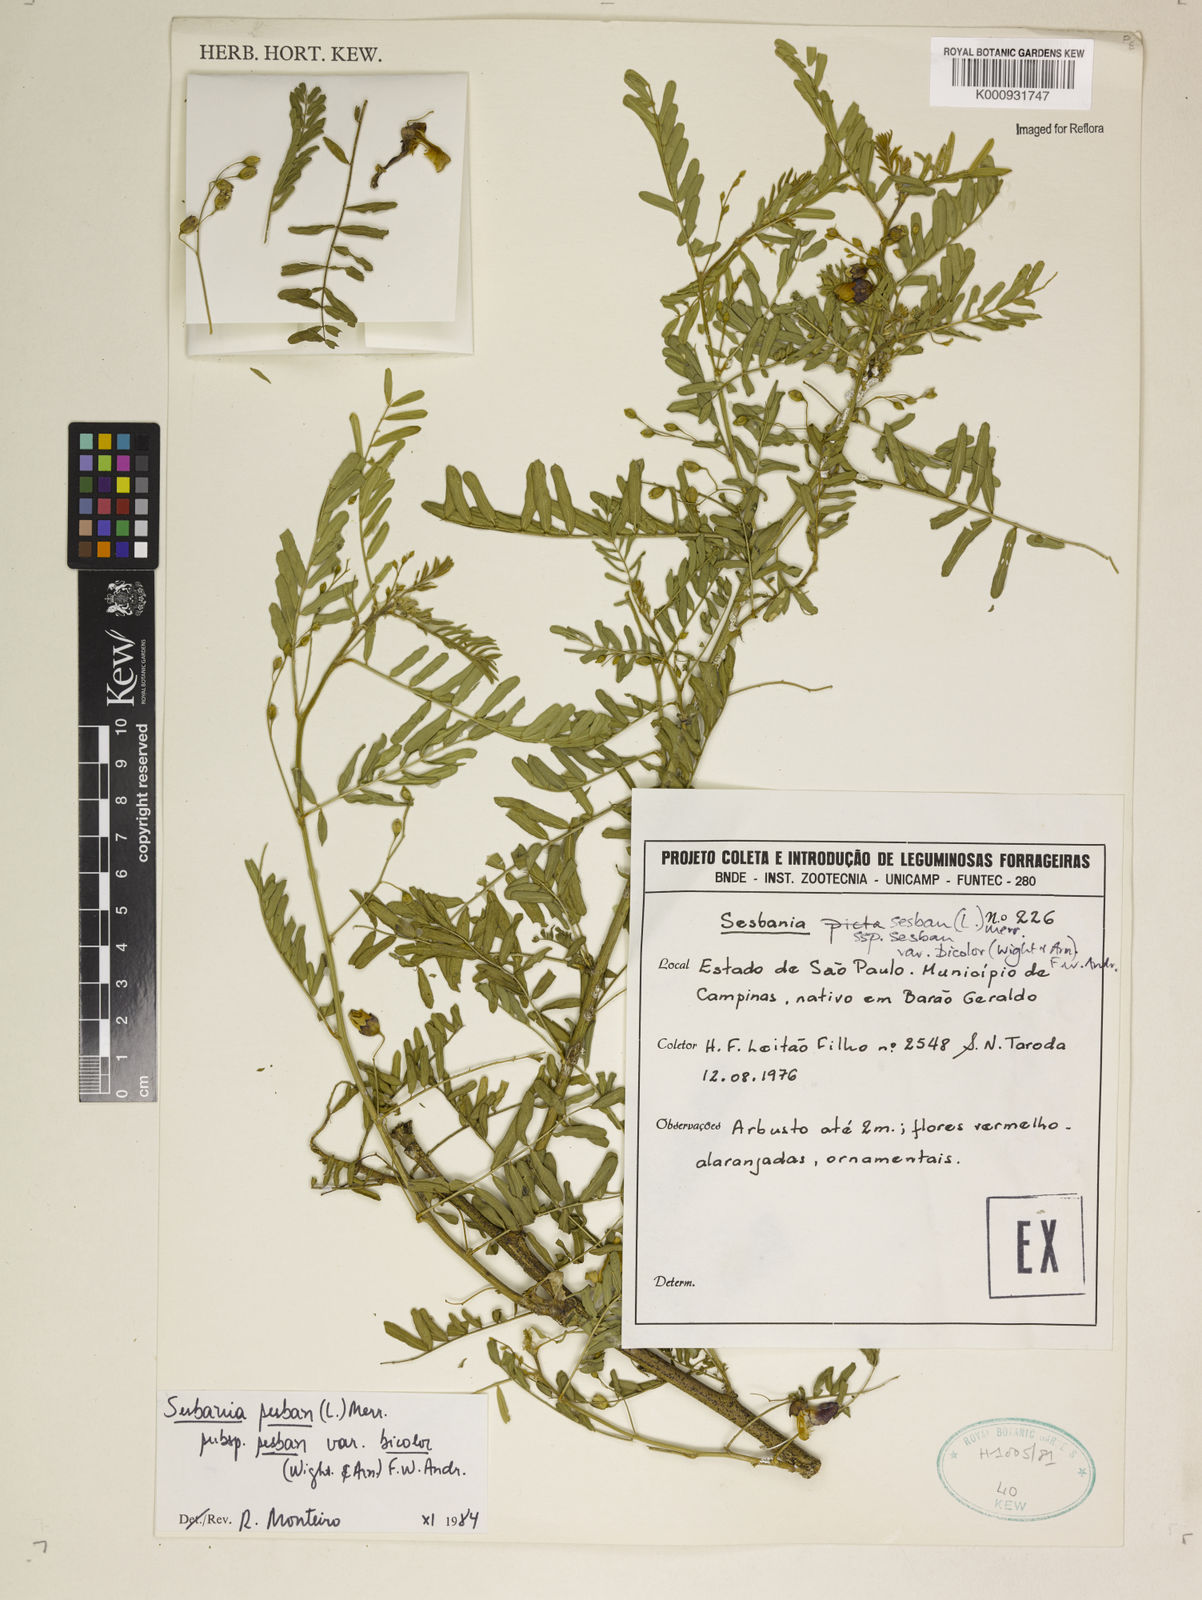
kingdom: Plantae
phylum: Tracheophyta
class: Magnoliopsida
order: Fabales
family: Fabaceae
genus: Sesbania
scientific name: Sesbania
